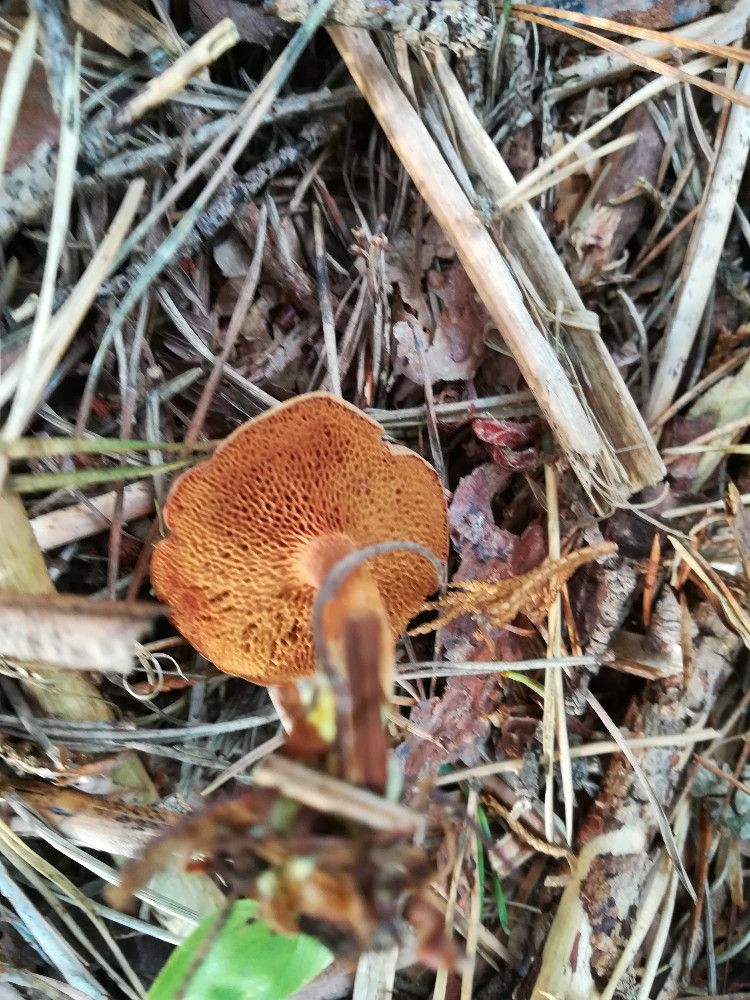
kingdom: Fungi
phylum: Basidiomycota
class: Agaricomycetes
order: Boletales
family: Boletaceae
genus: Chalciporus
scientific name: Chalciporus piperatus
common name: peberrørhat
